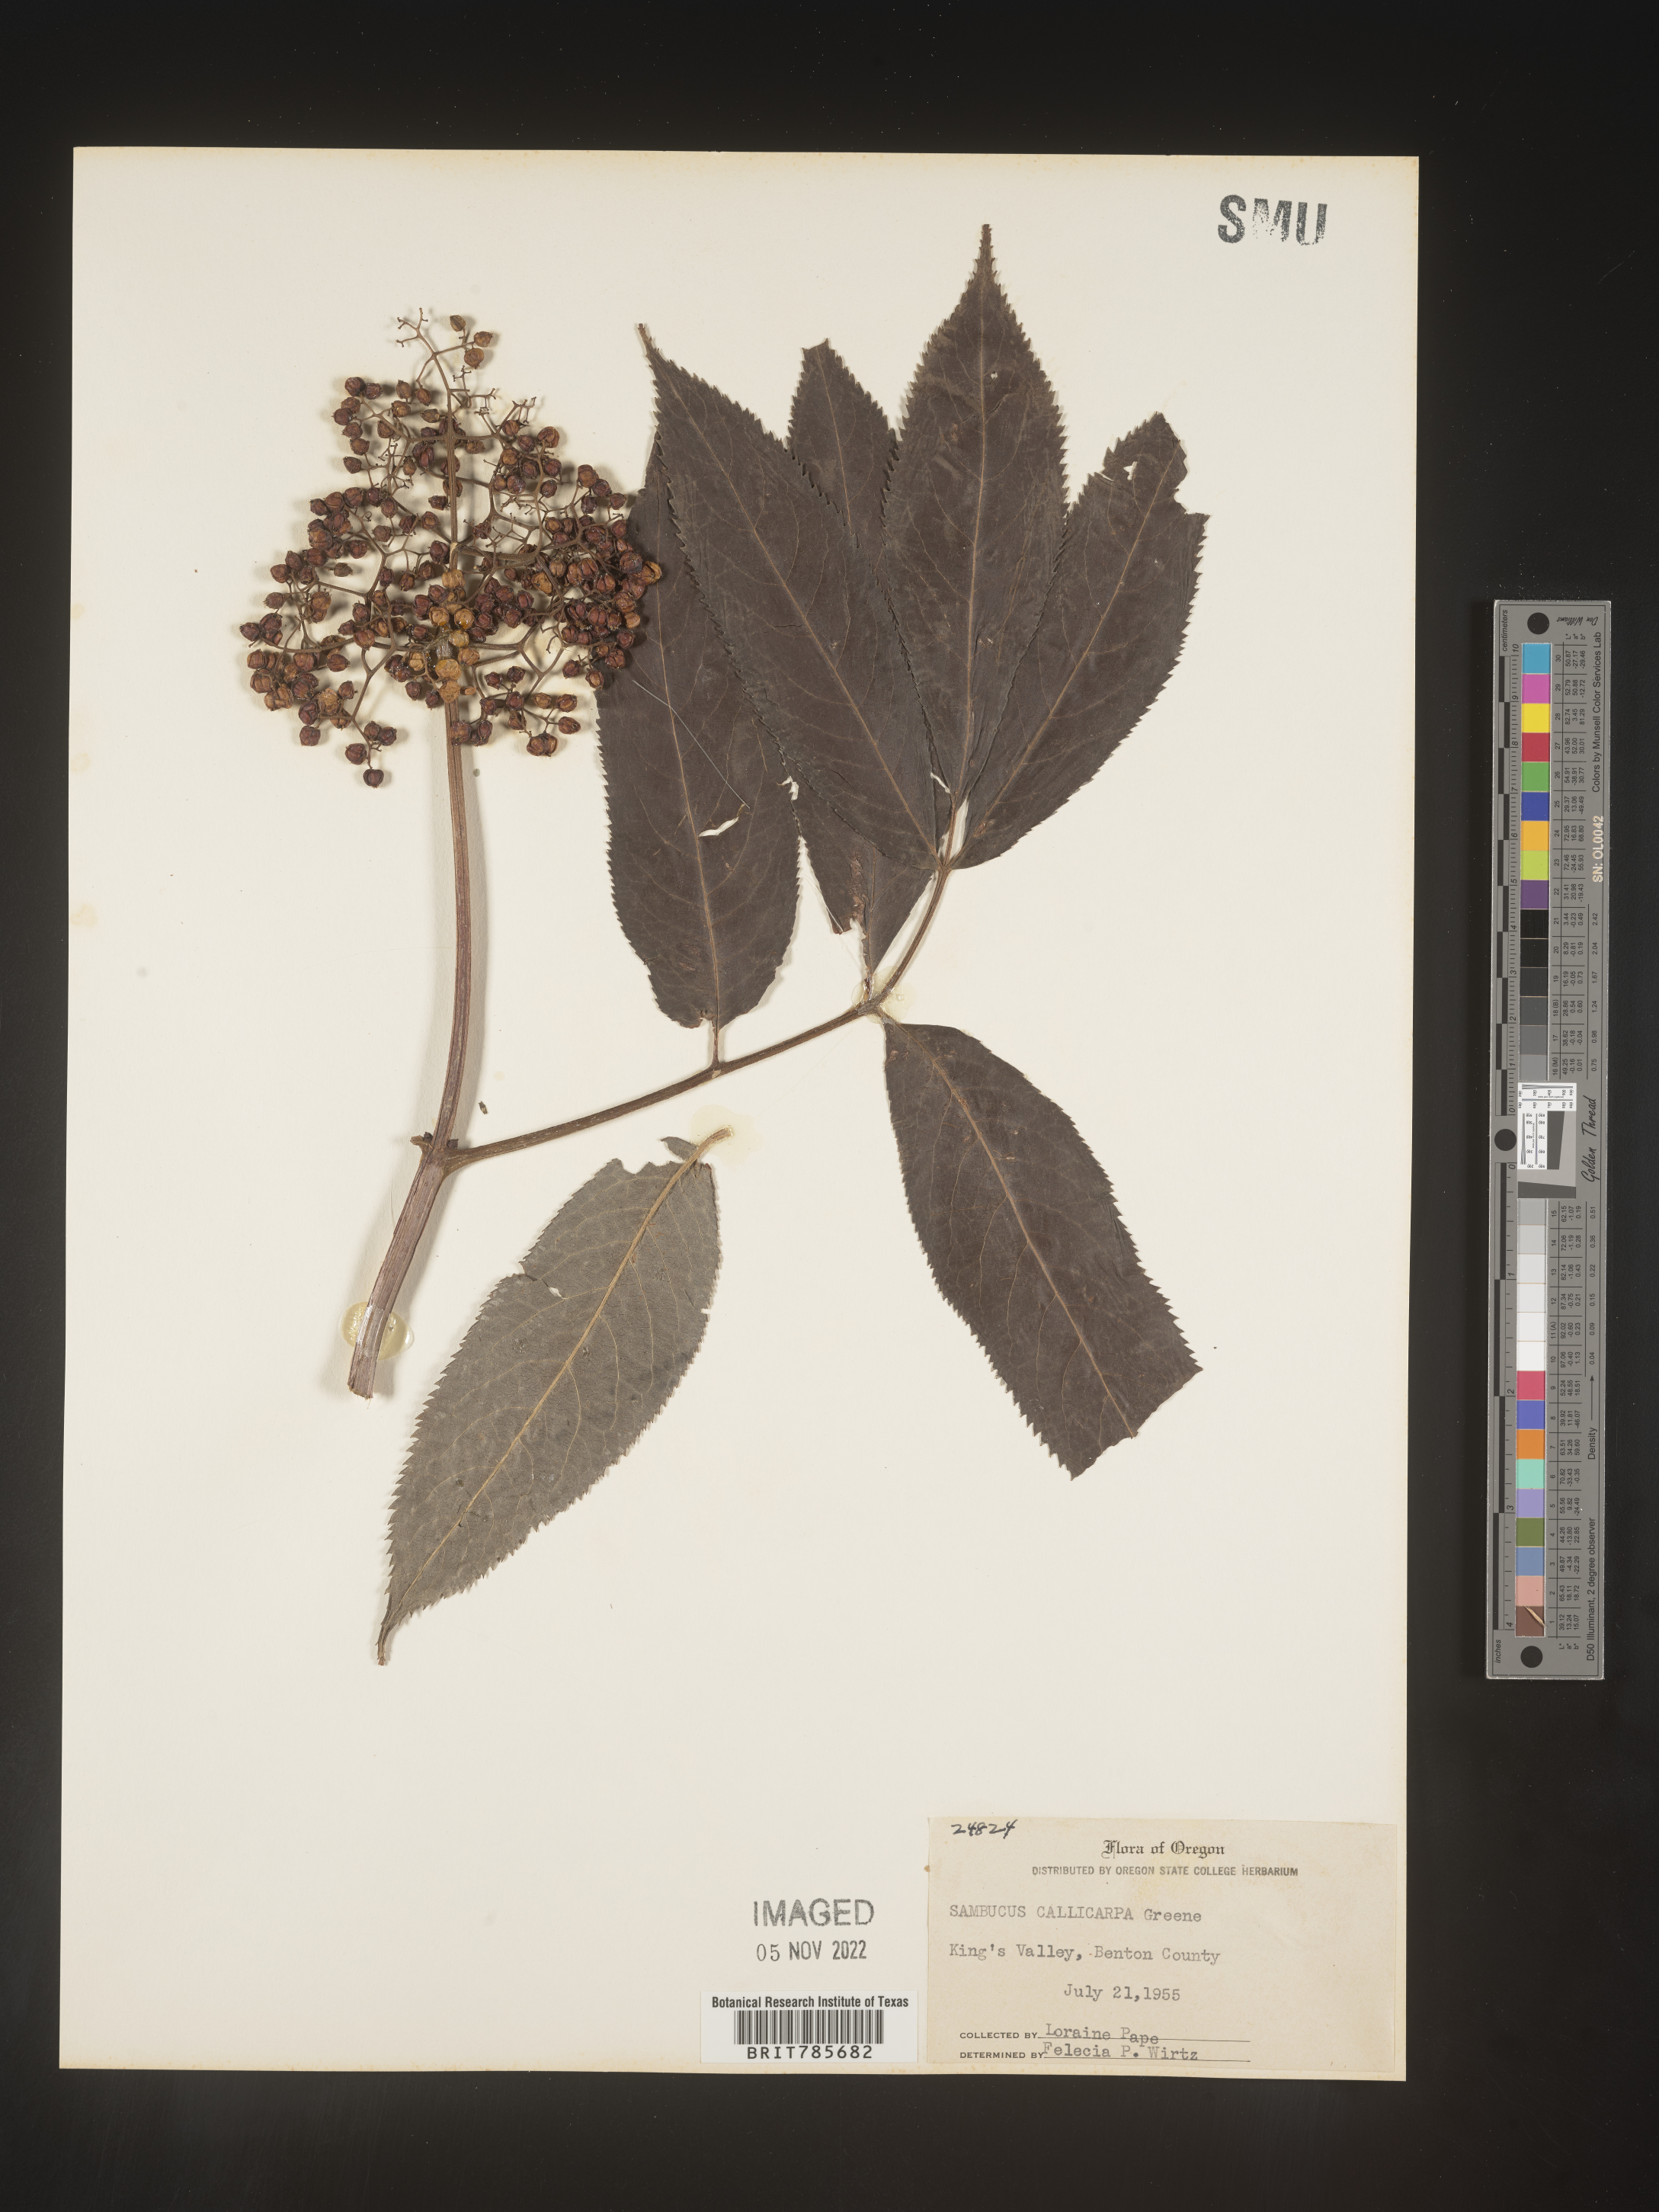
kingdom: Plantae
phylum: Tracheophyta
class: Magnoliopsida
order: Dipsacales
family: Viburnaceae
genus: Sambucus
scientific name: Sambucus racemosa
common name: Red-berried elder
